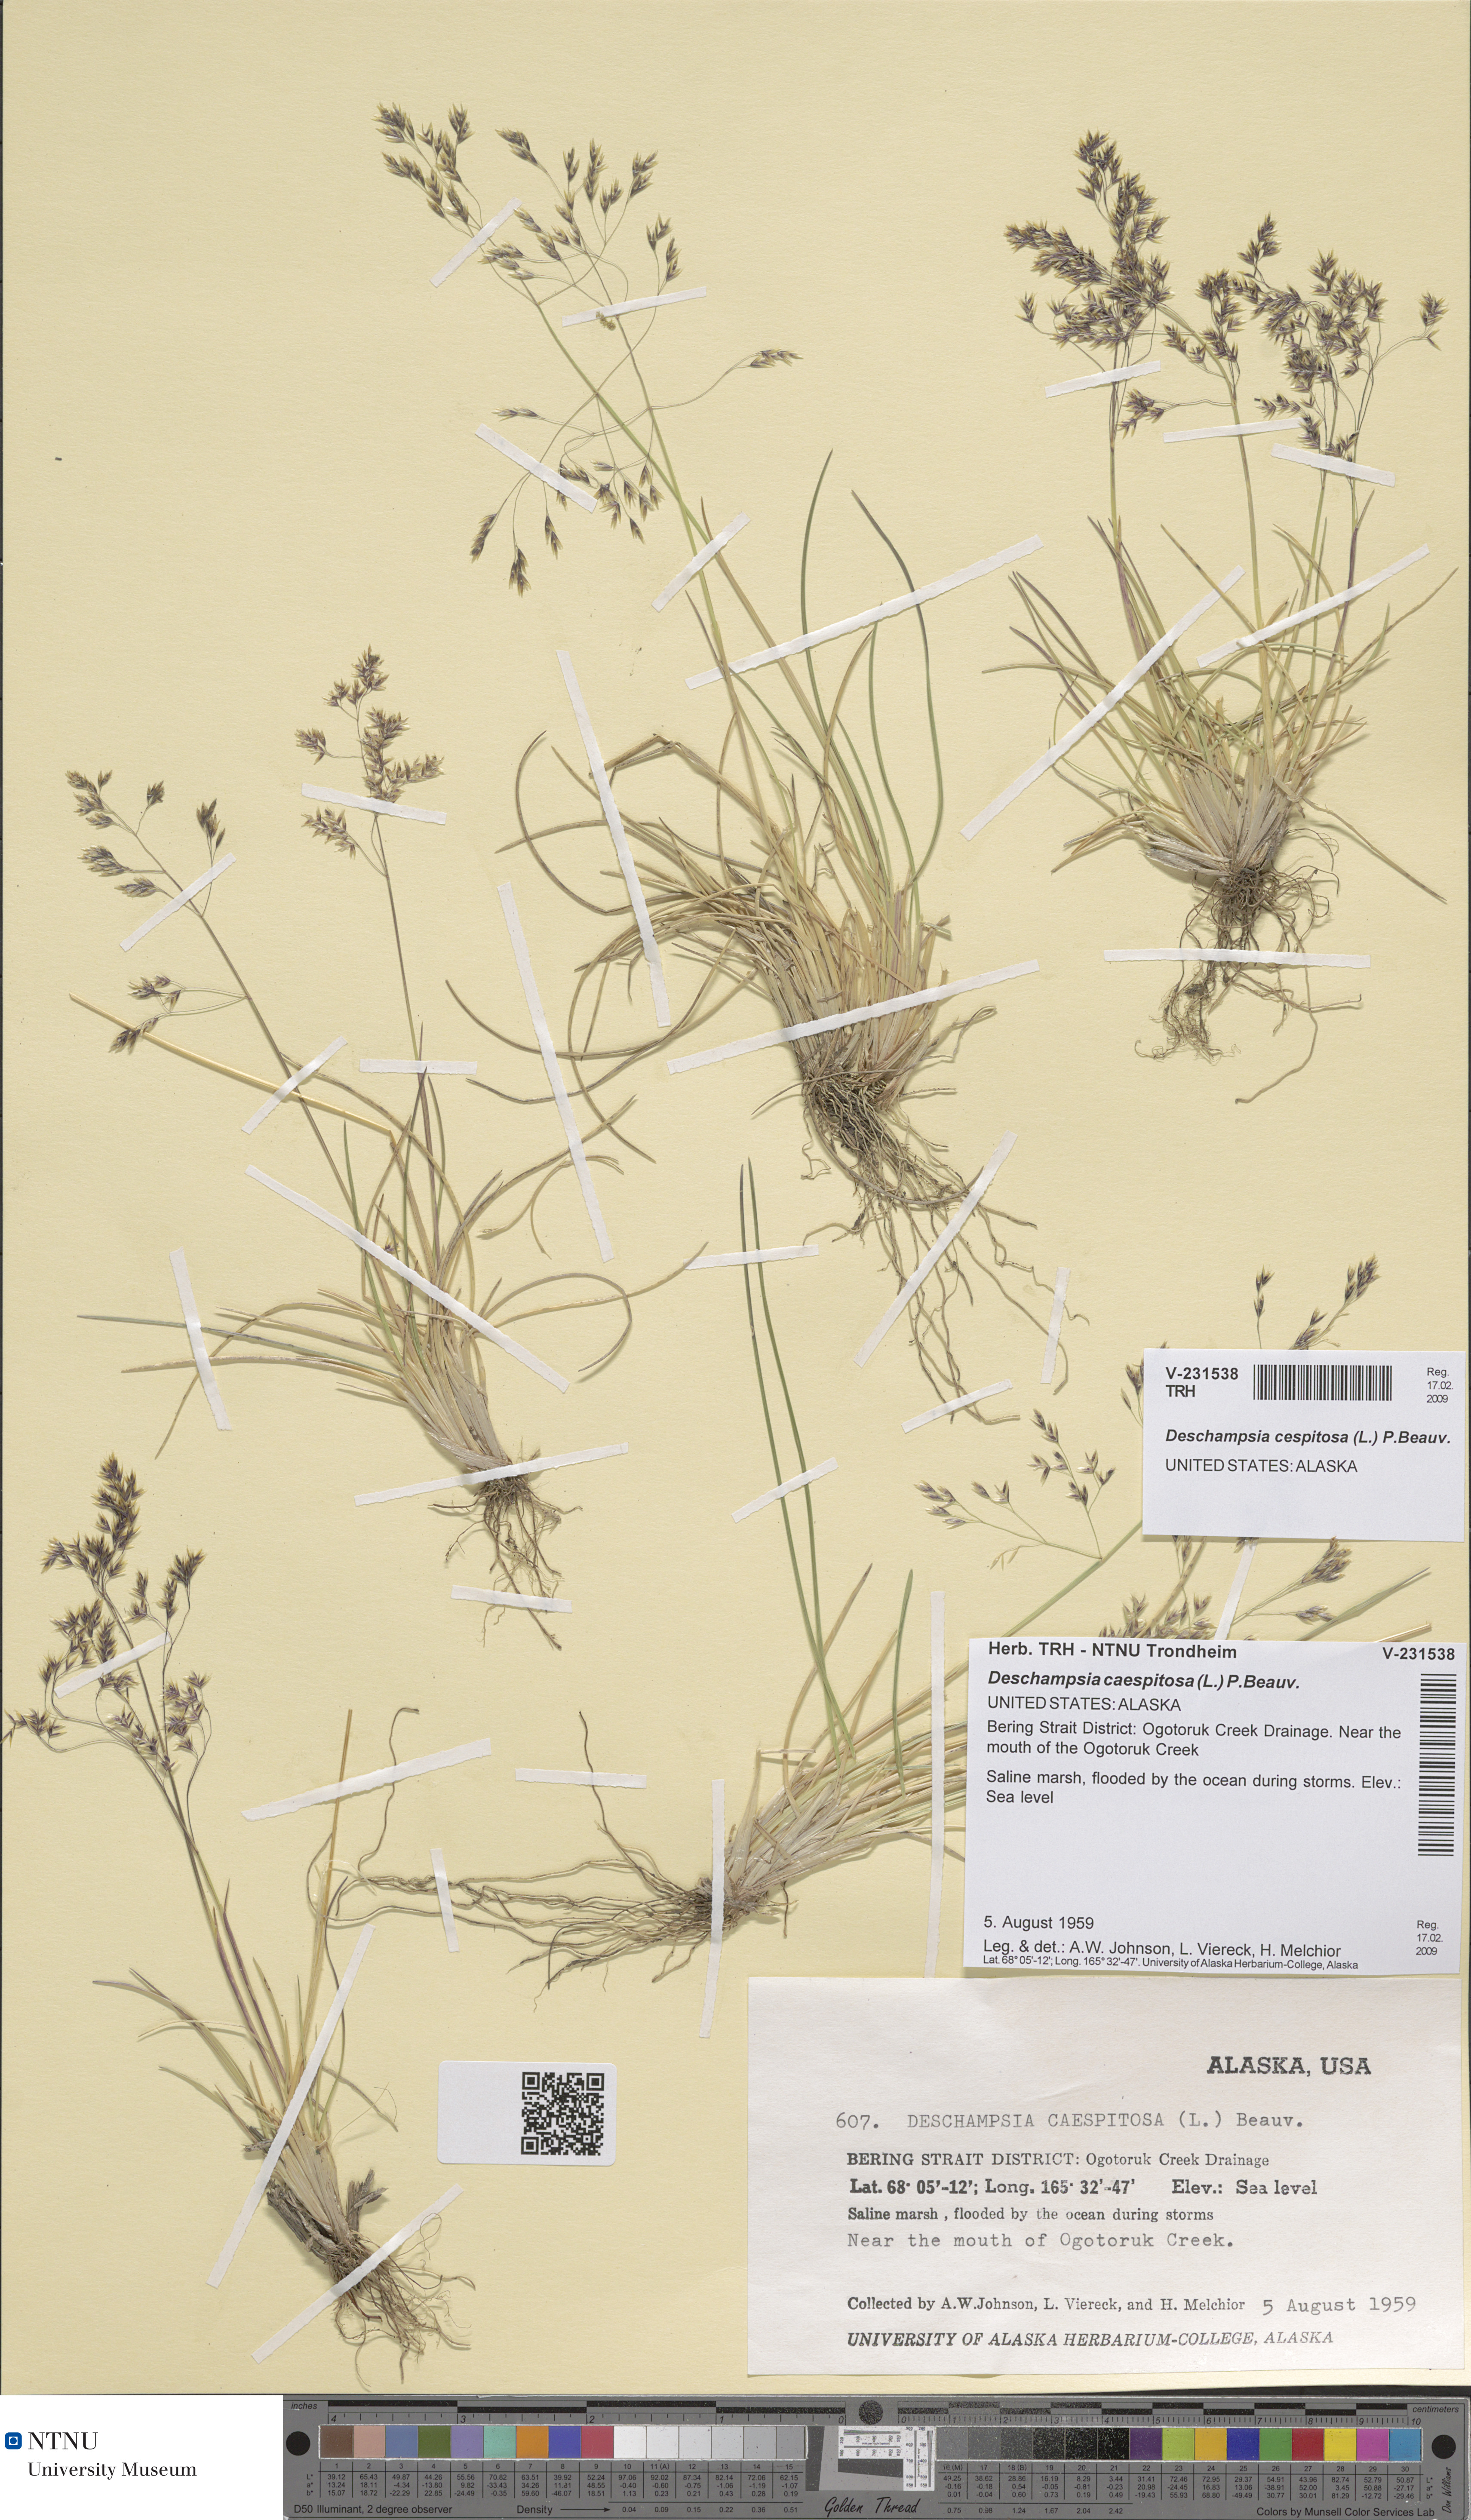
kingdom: Plantae
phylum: Tracheophyta
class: Liliopsida
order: Poales
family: Poaceae
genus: Deschampsia
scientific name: Deschampsia cespitosa
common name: Tufted hair-grass
